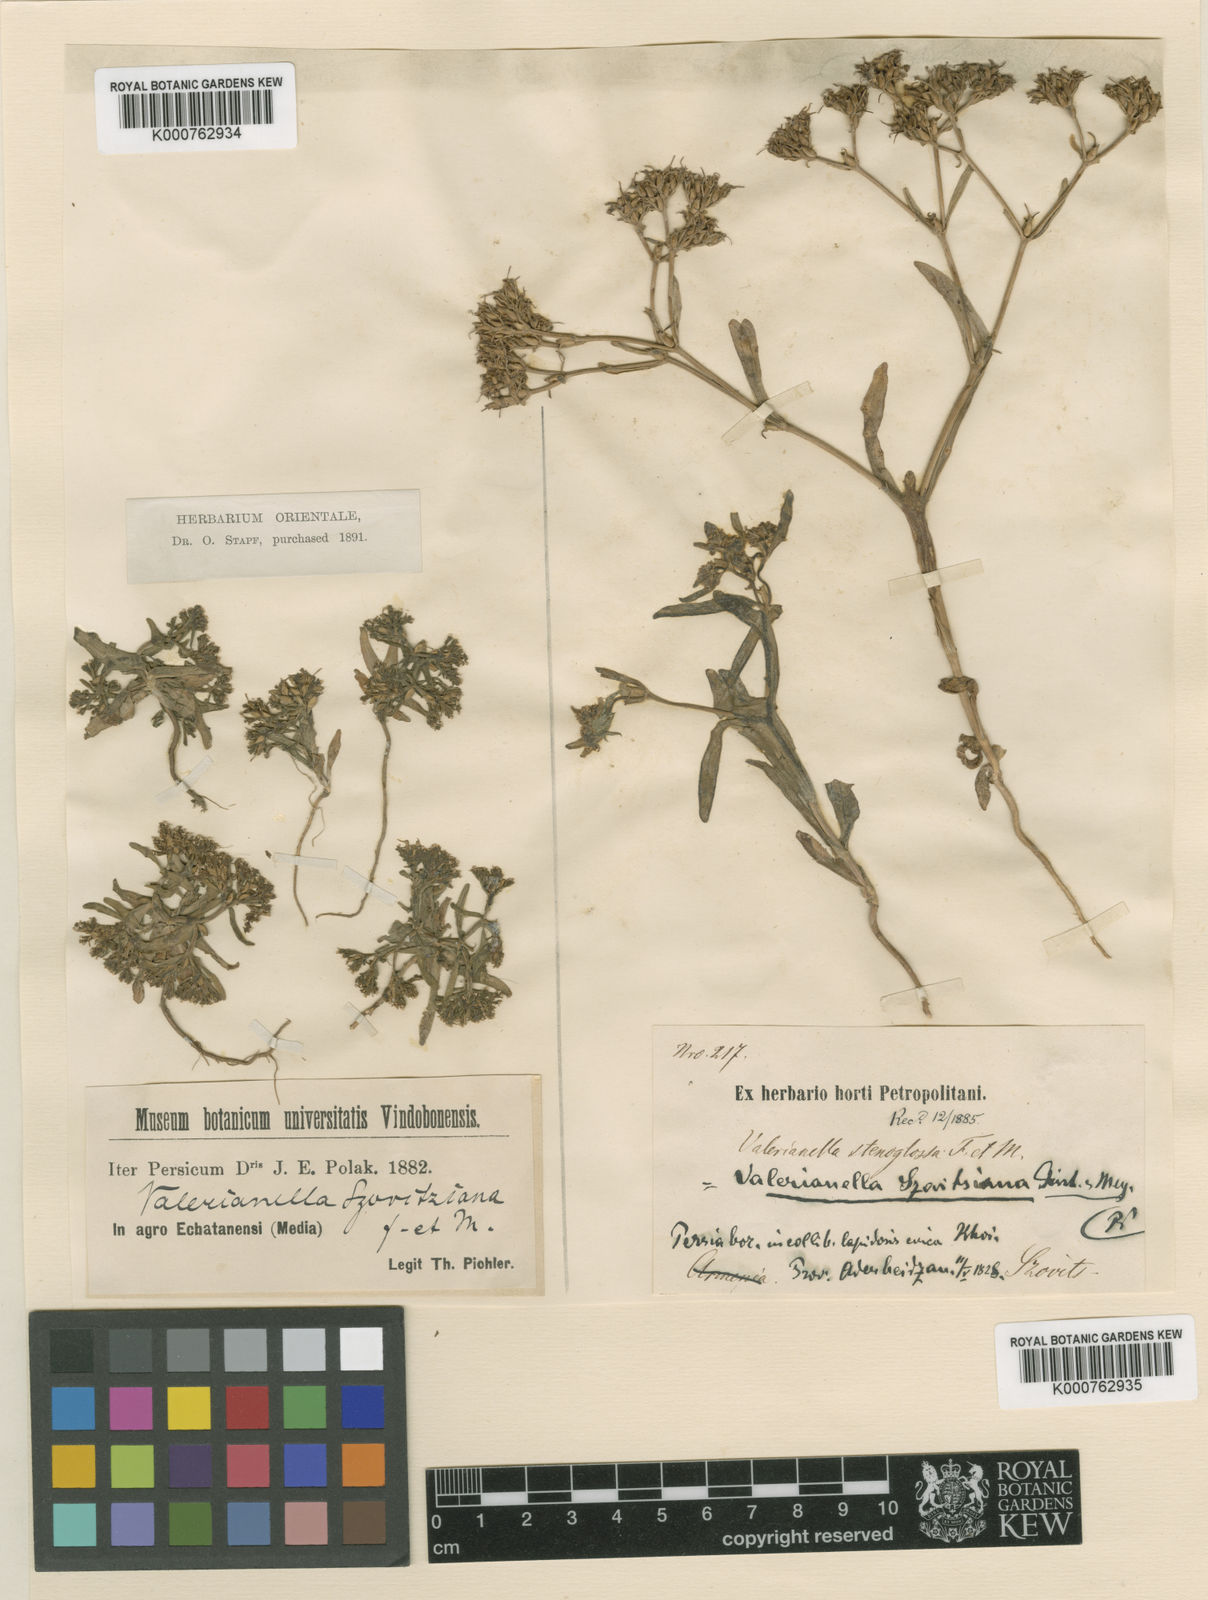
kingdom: Plantae
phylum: Tracheophyta
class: Magnoliopsida
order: Dipsacales
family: Caprifoliaceae
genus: Valerianella
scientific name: Valerianella szovitsiana
